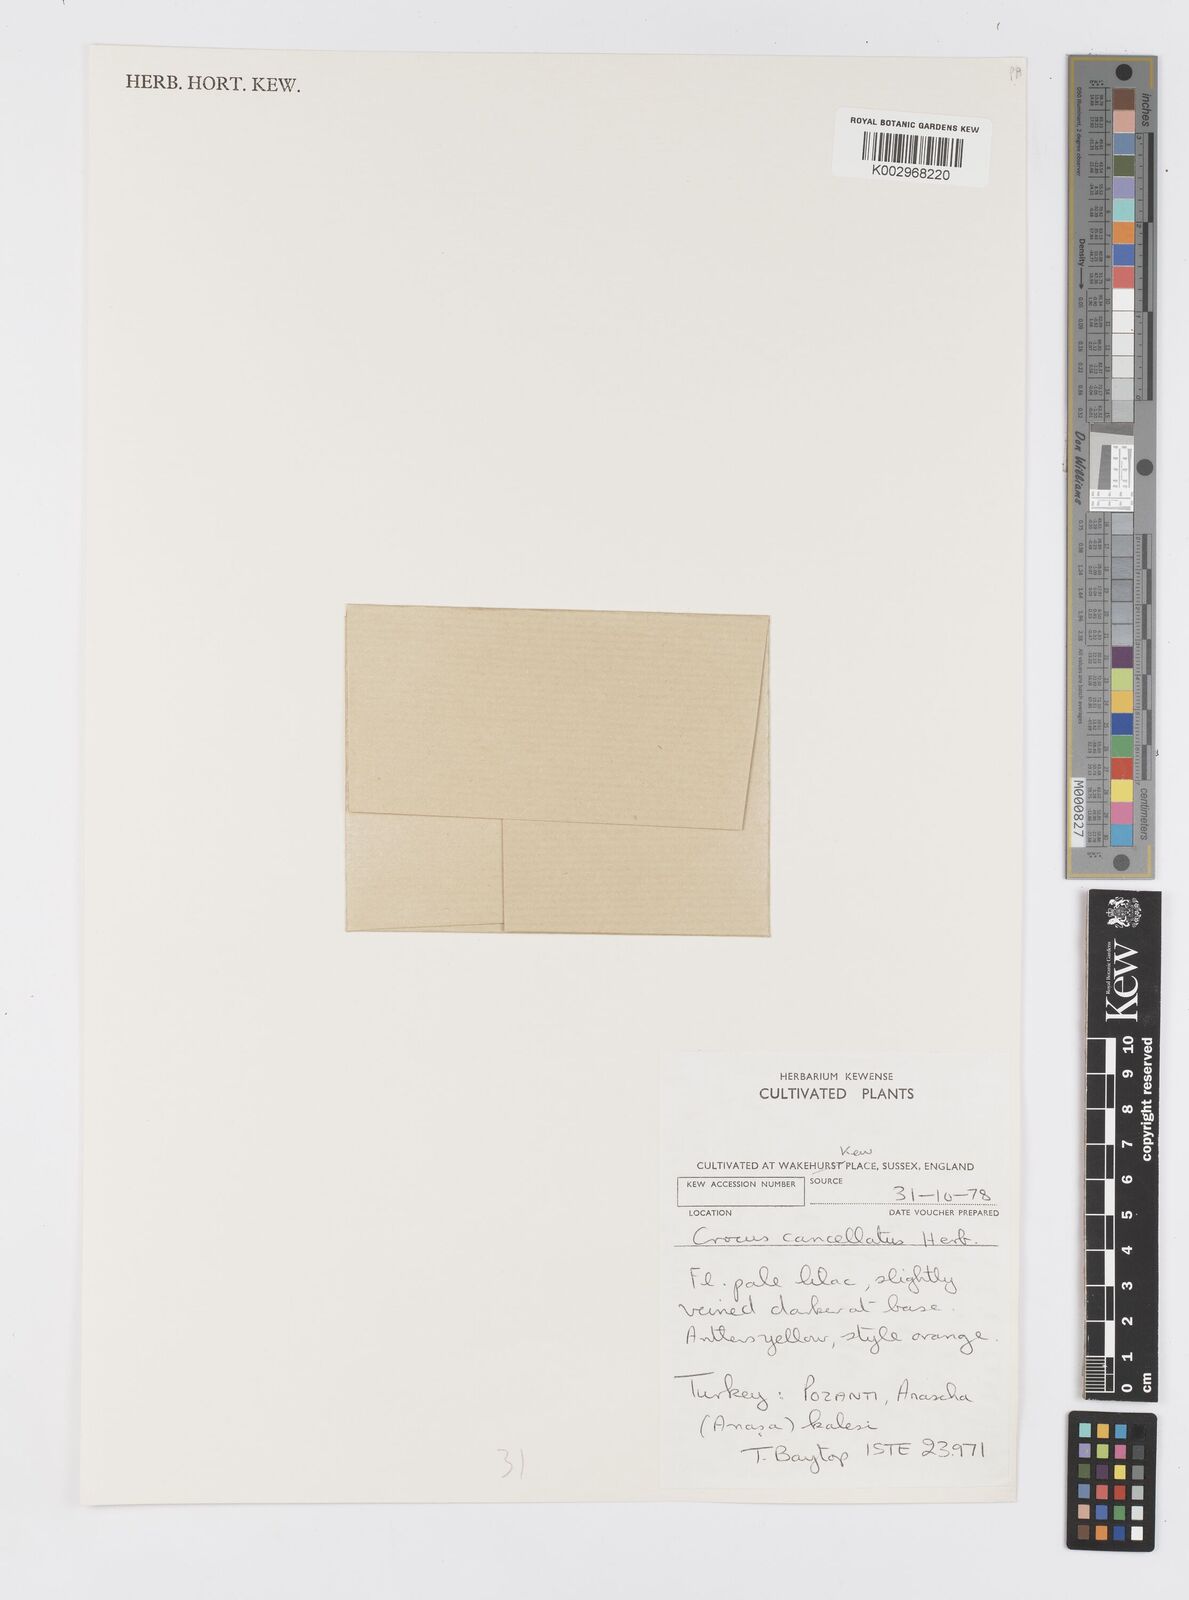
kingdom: Plantae
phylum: Tracheophyta
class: Liliopsida
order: Asparagales
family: Iridaceae
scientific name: Iridaceae
